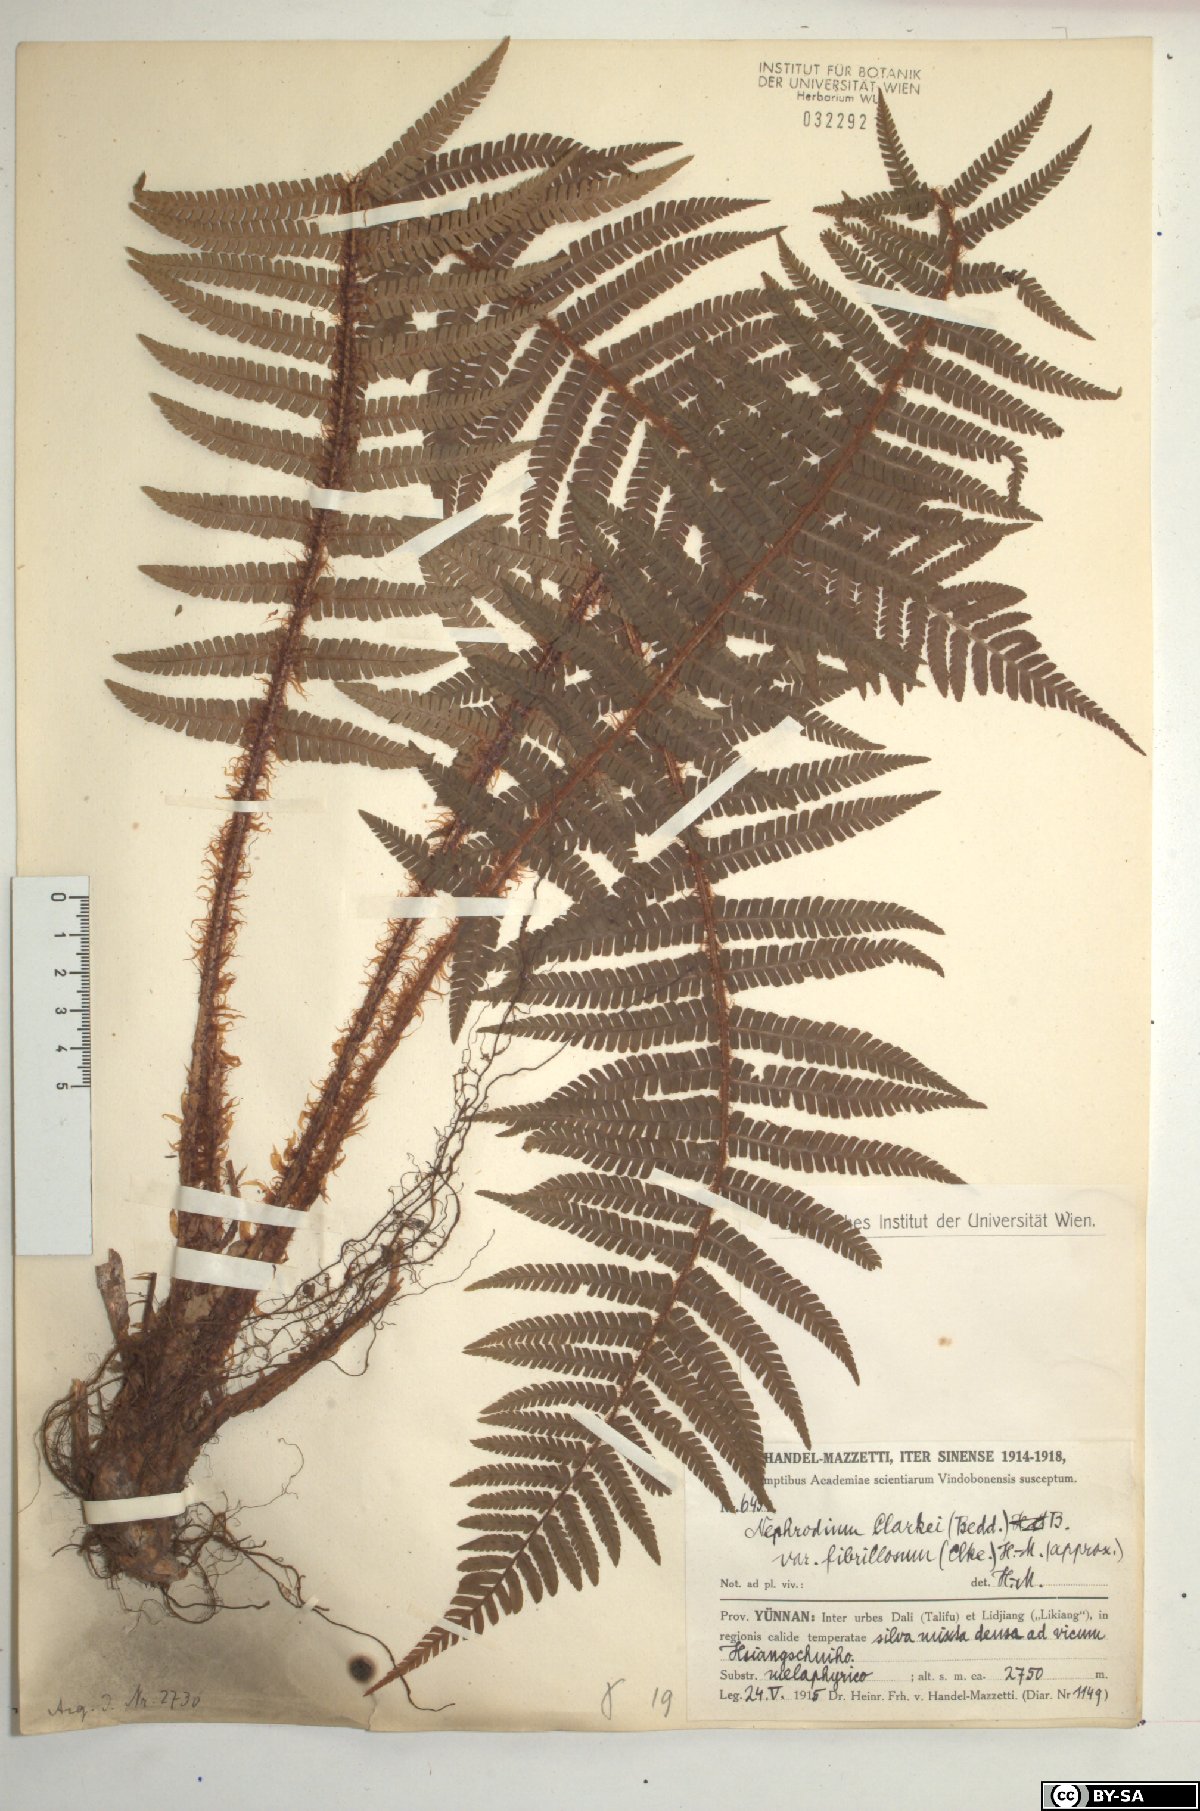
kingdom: Plantae
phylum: Tracheophyta
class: Polypodiopsida
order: Polypodiales
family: Dryopteridaceae
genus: Dryopteris
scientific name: Dryopteris xanthomelas
